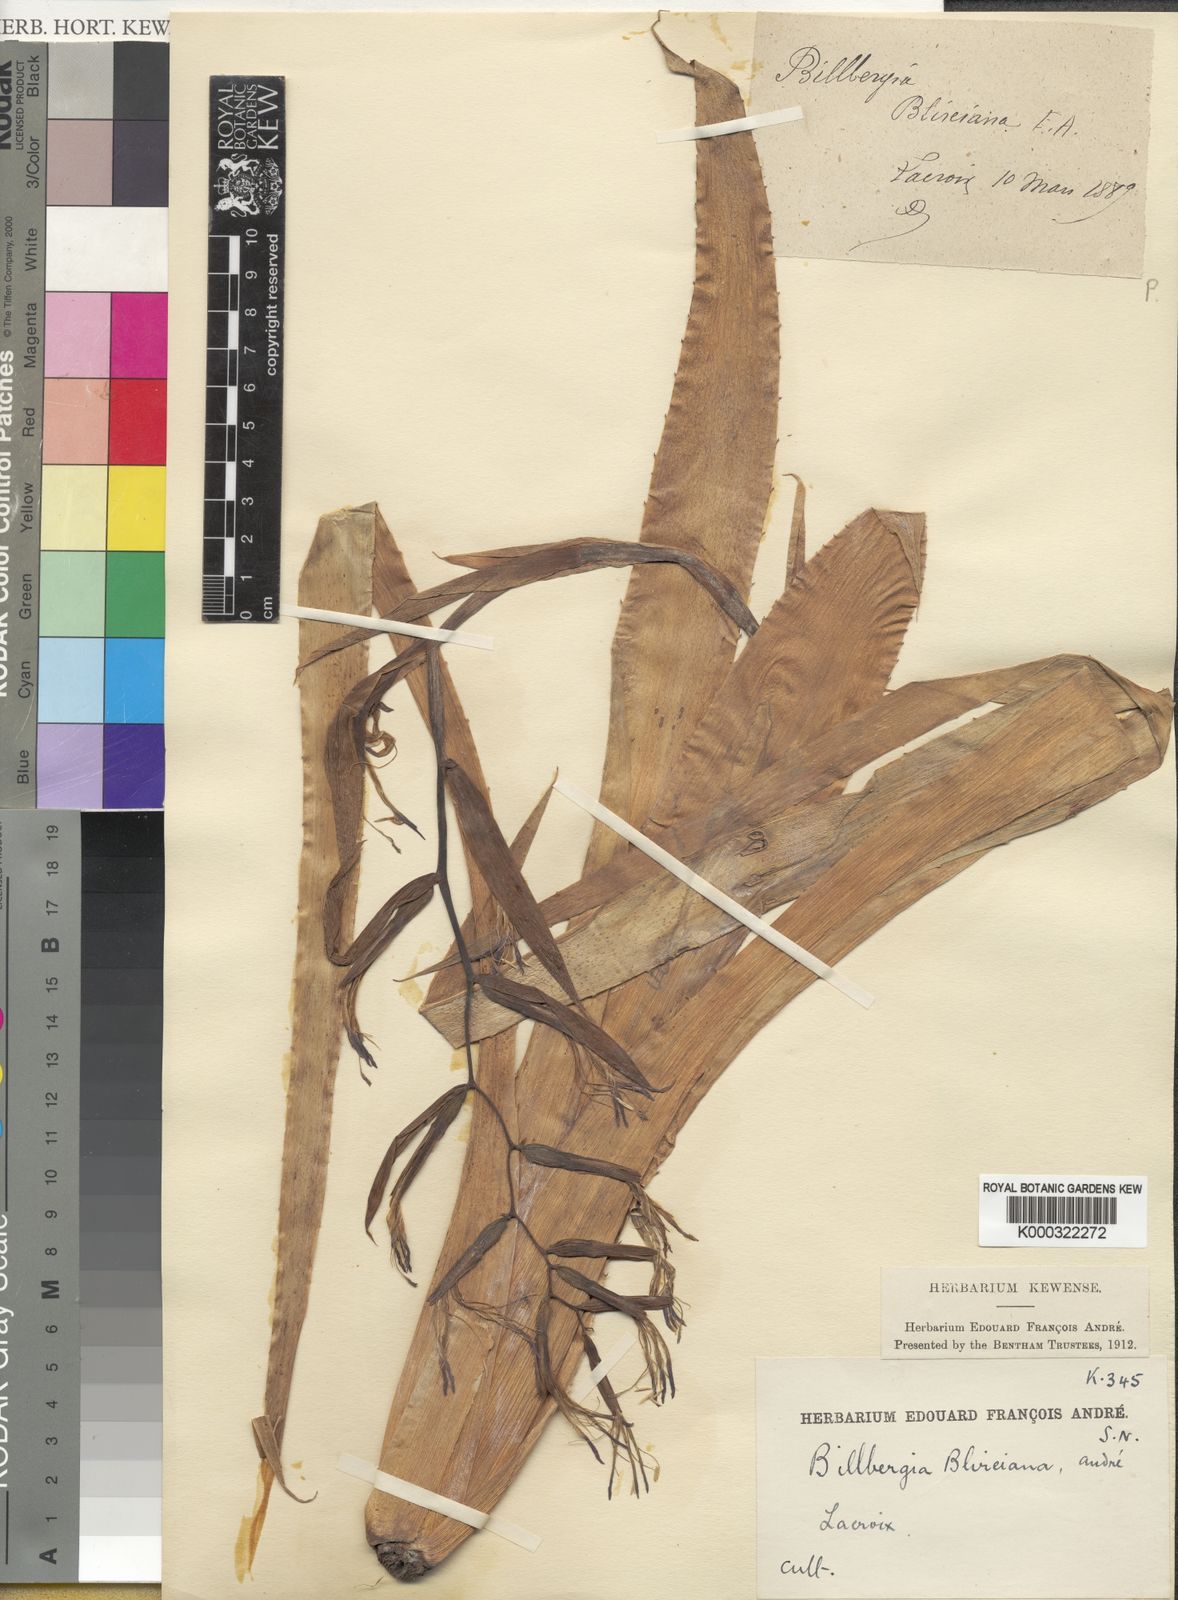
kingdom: Plantae
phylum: Tracheophyta
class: Liliopsida
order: Poales
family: Bromeliaceae
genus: Billbergia
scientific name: Billbergia
